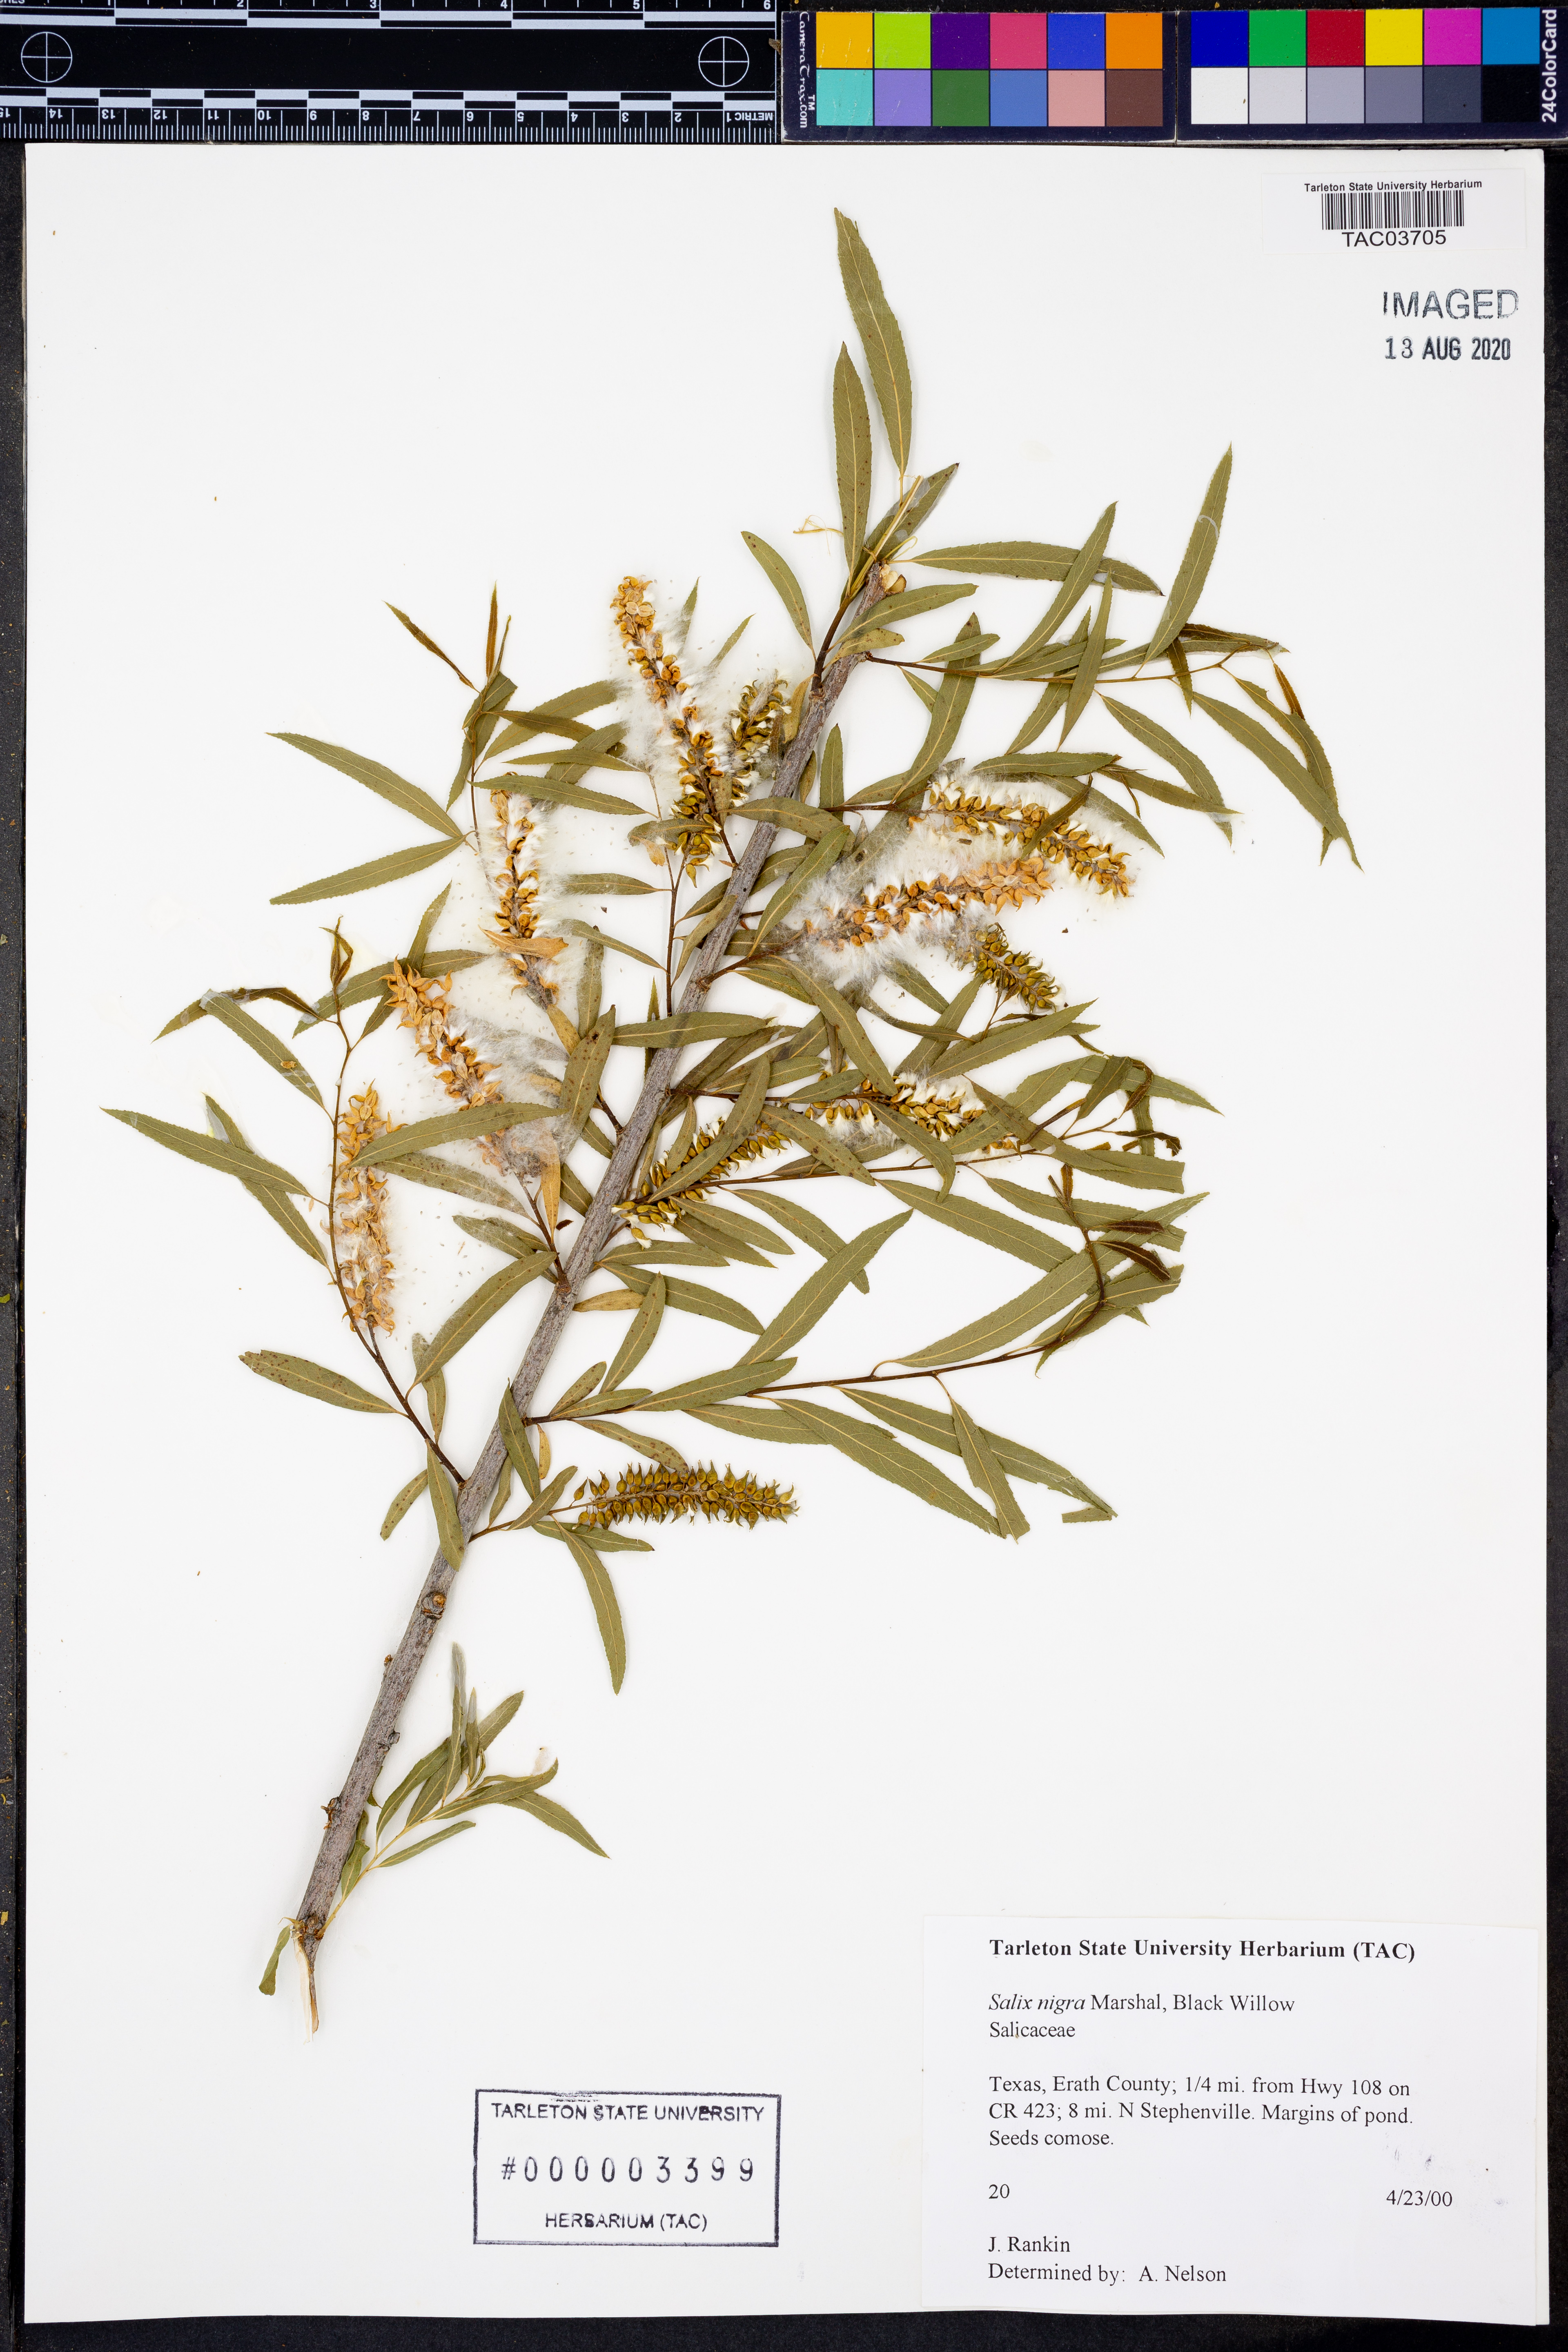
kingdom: Plantae
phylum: Tracheophyta
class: Magnoliopsida
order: Malpighiales
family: Salicaceae
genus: Salix
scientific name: Salix nigra
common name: Black willow
